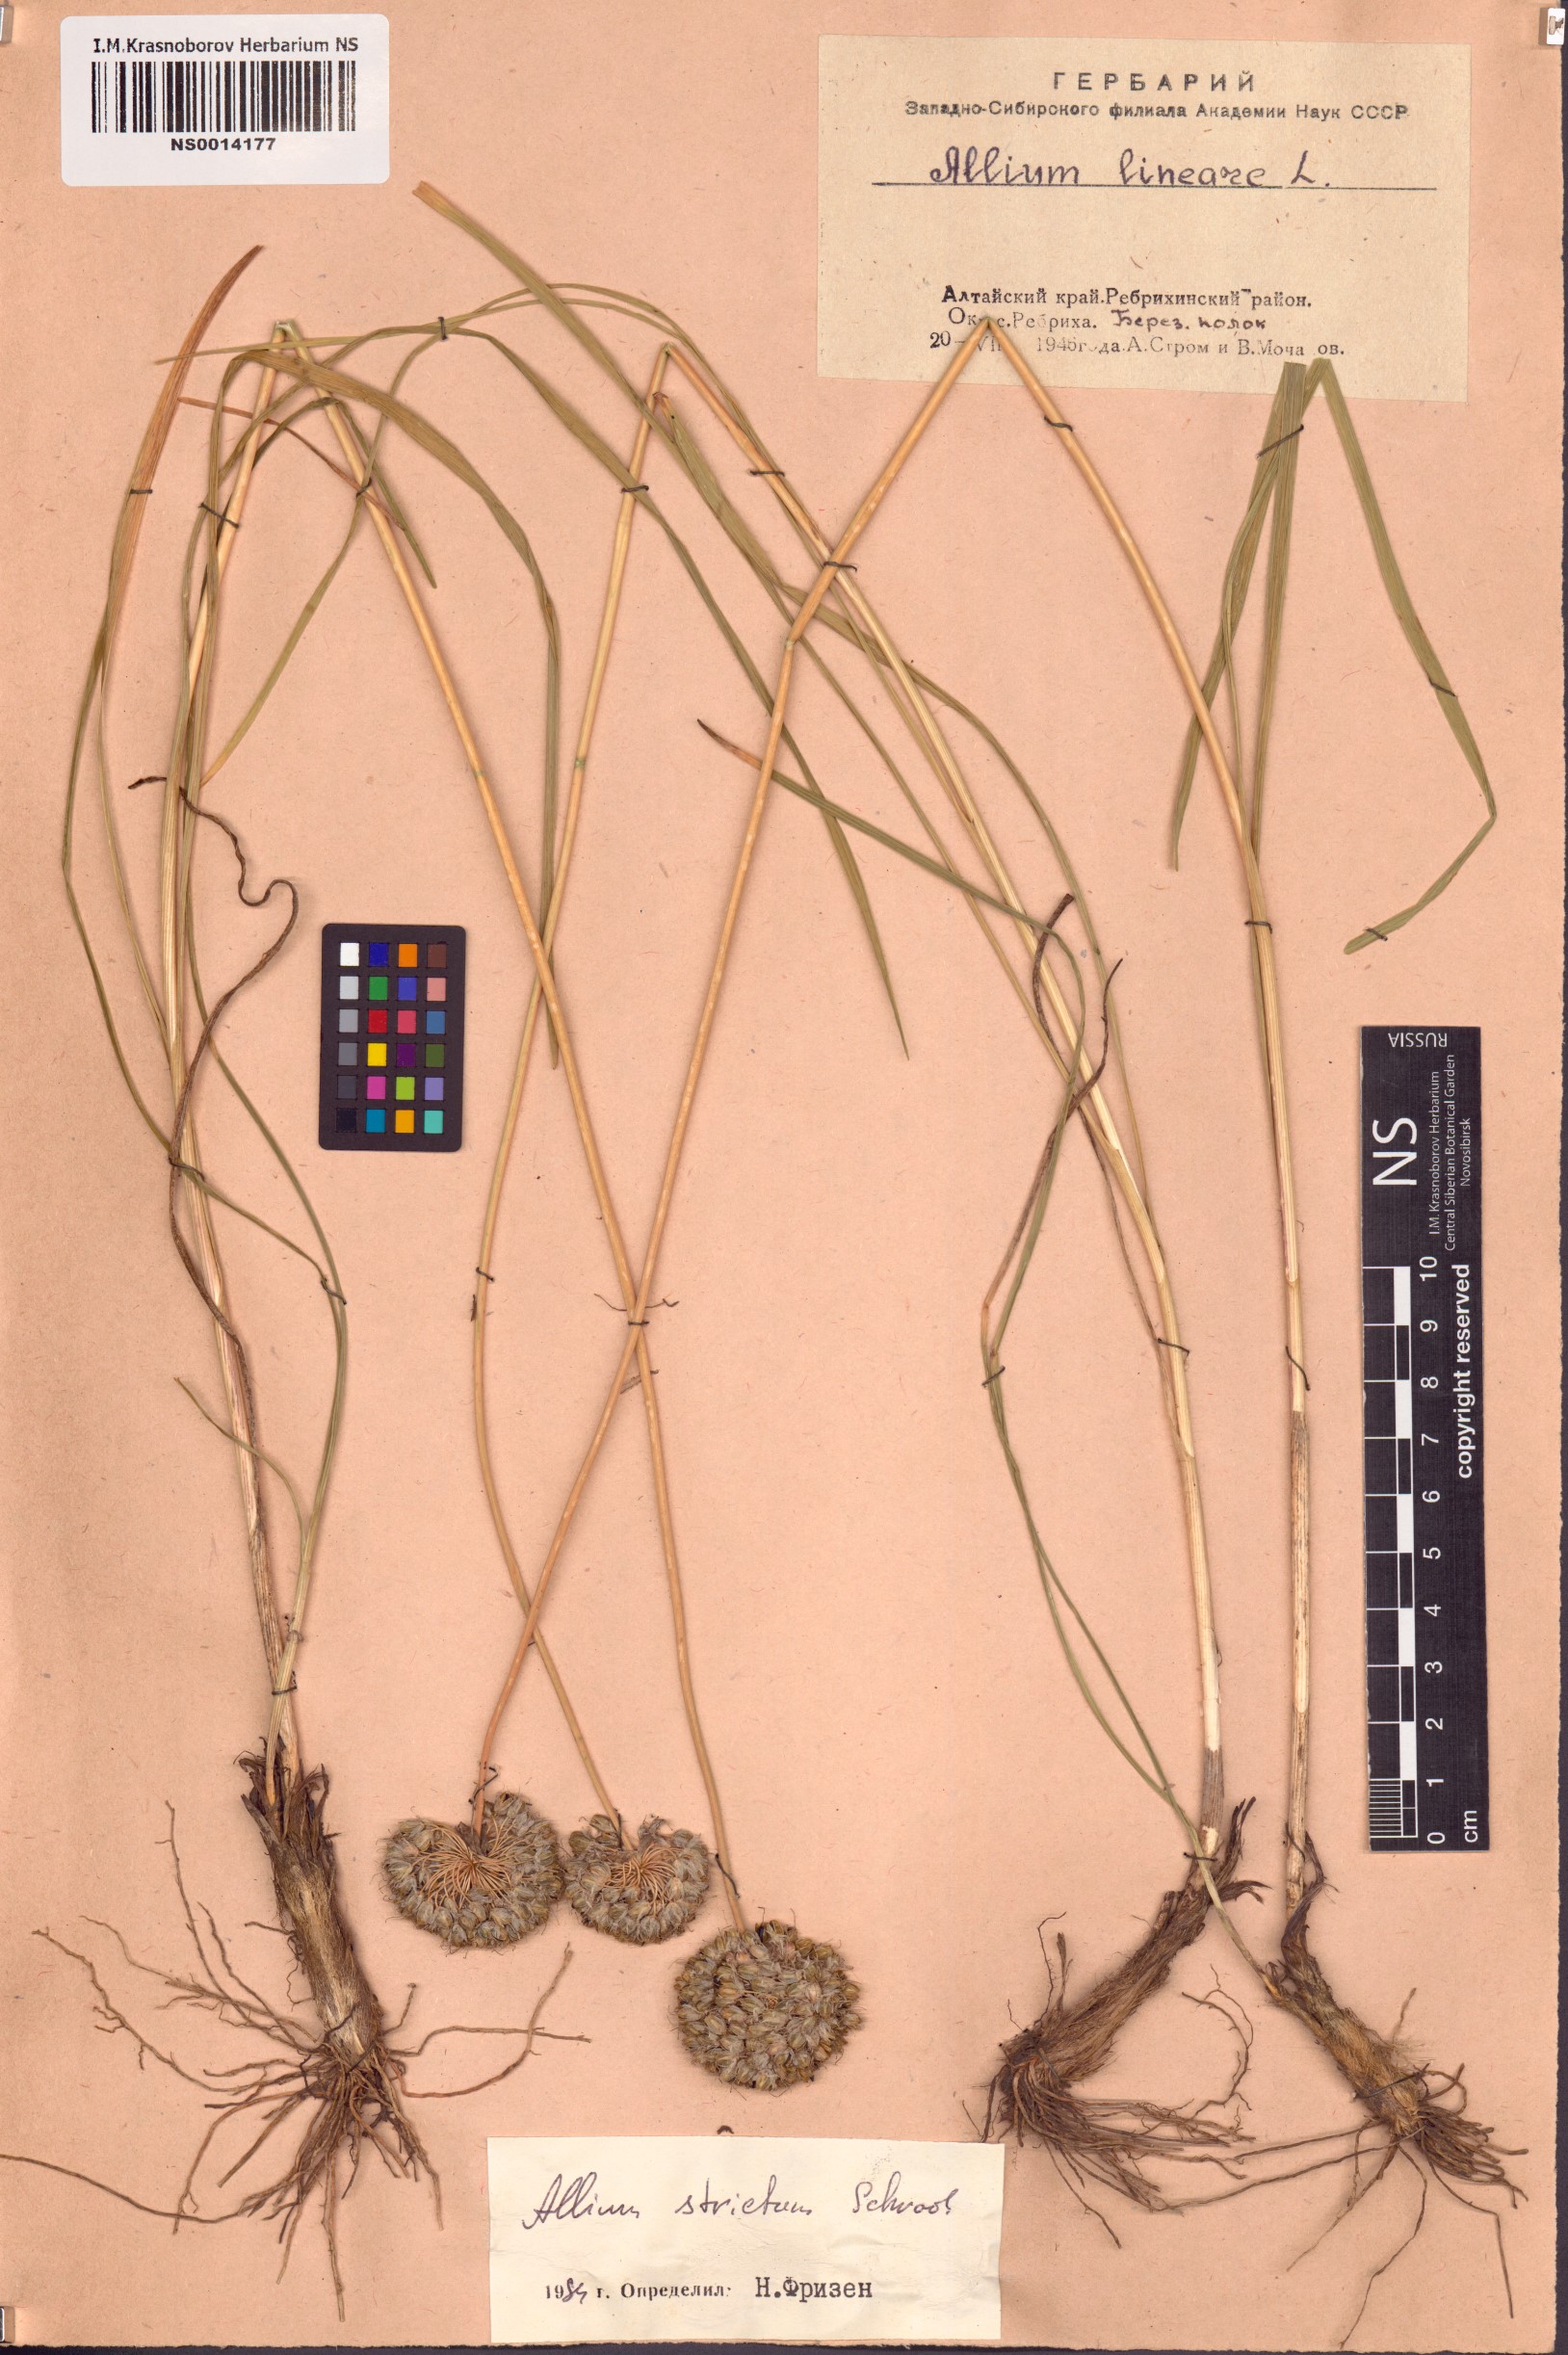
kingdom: Plantae
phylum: Tracheophyta
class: Liliopsida
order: Asparagales
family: Amaryllidaceae
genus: Allium
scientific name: Allium strictum
